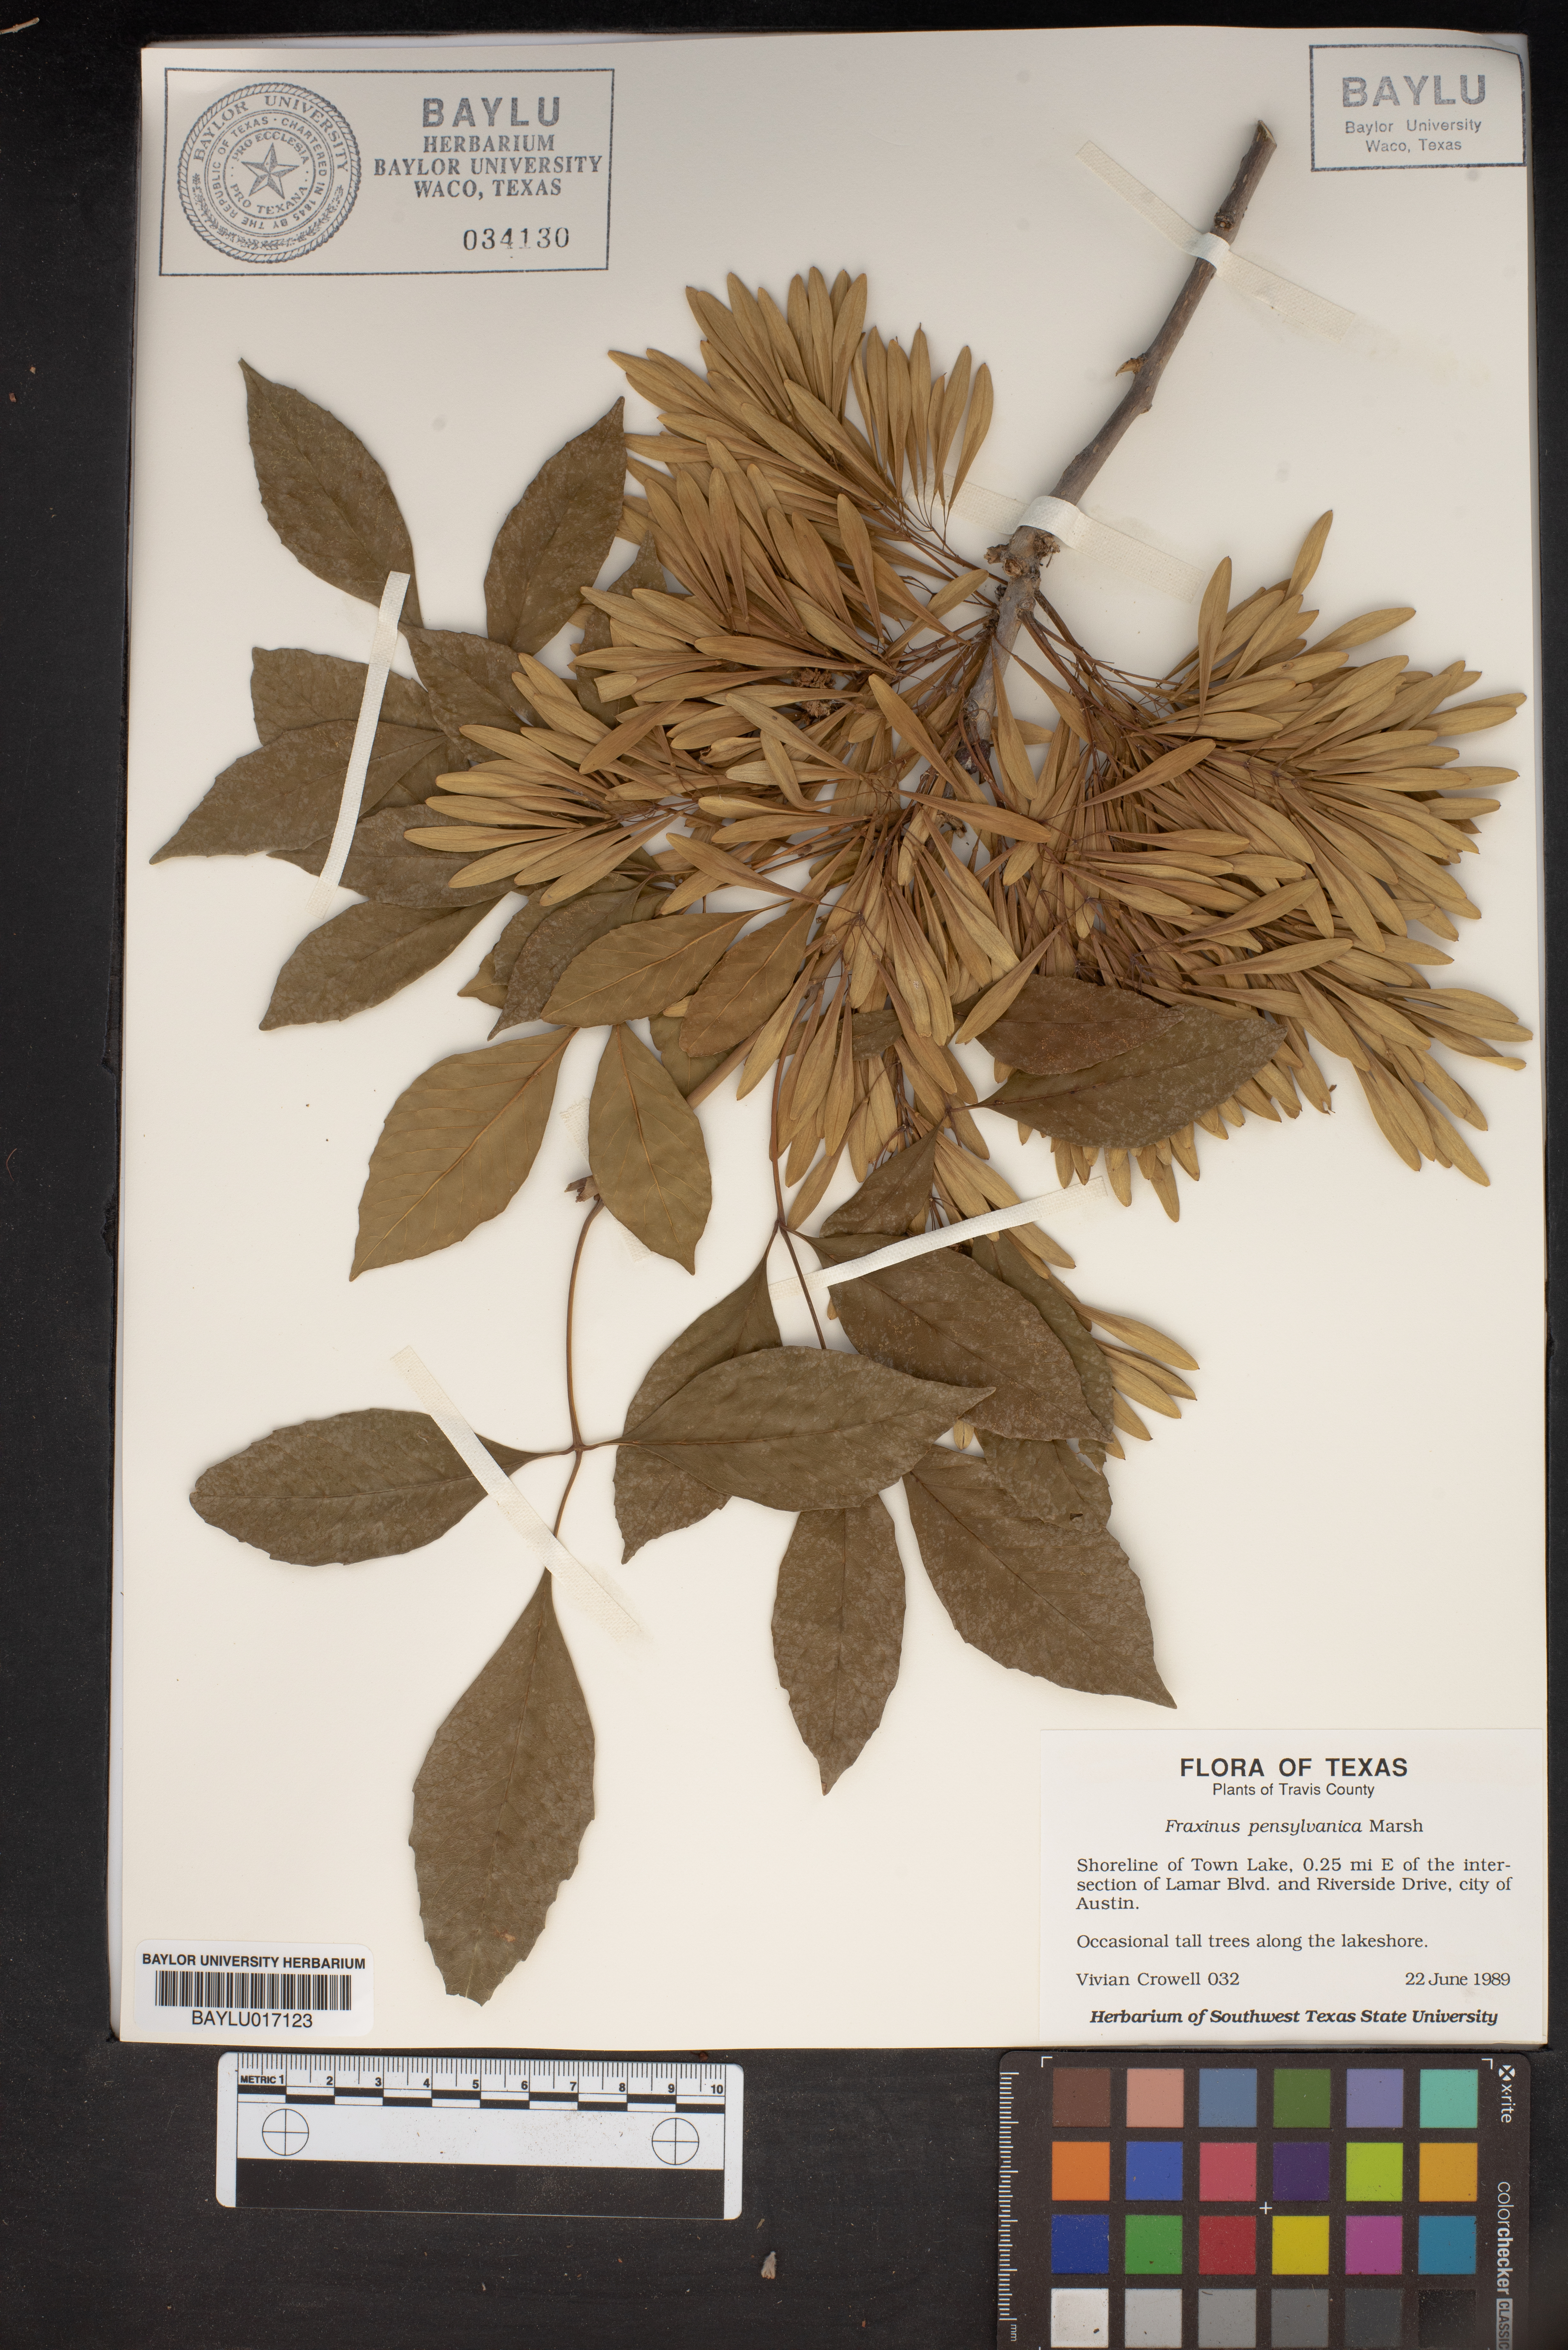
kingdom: Plantae
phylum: Tracheophyta
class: Magnoliopsida
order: Lamiales
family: Oleaceae
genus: Fraxinus
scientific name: Fraxinus pennsylvanica
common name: Green ash
